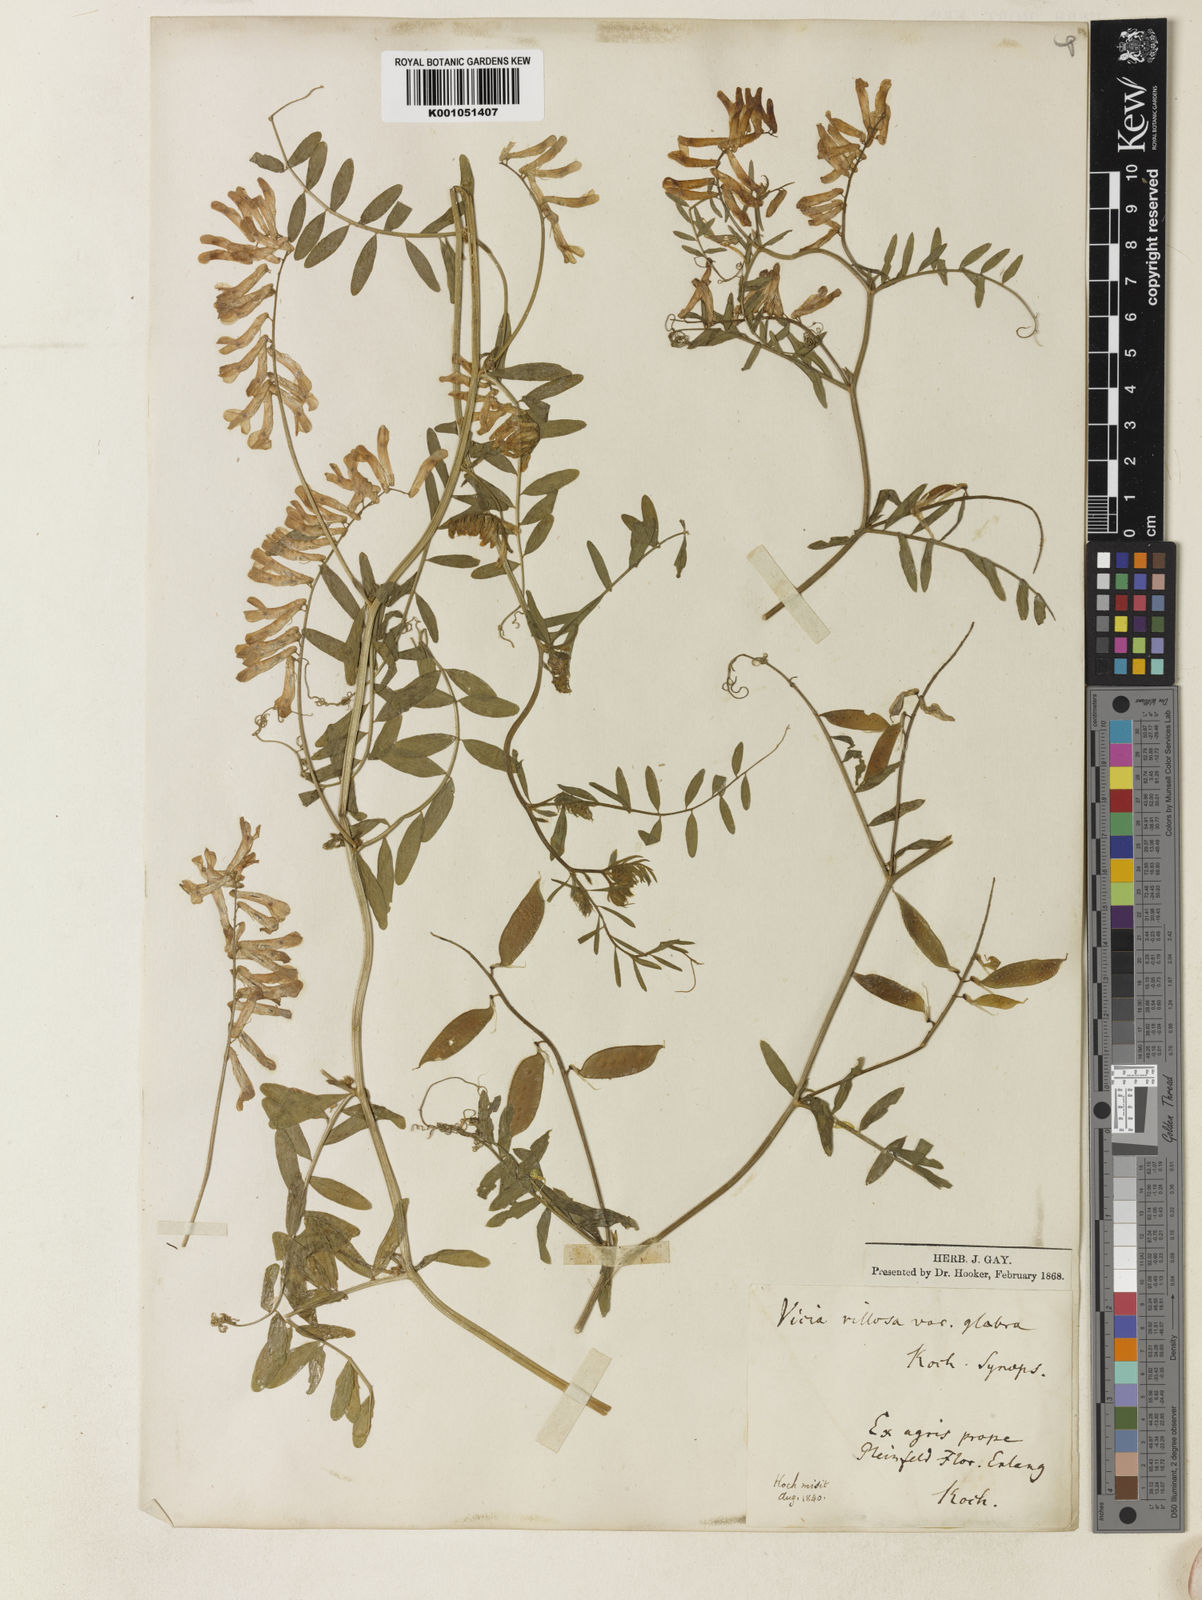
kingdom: Plantae
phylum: Tracheophyta
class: Magnoliopsida
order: Fabales
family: Fabaceae
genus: Vicia
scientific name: Vicia villosa
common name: Fodder vetch
